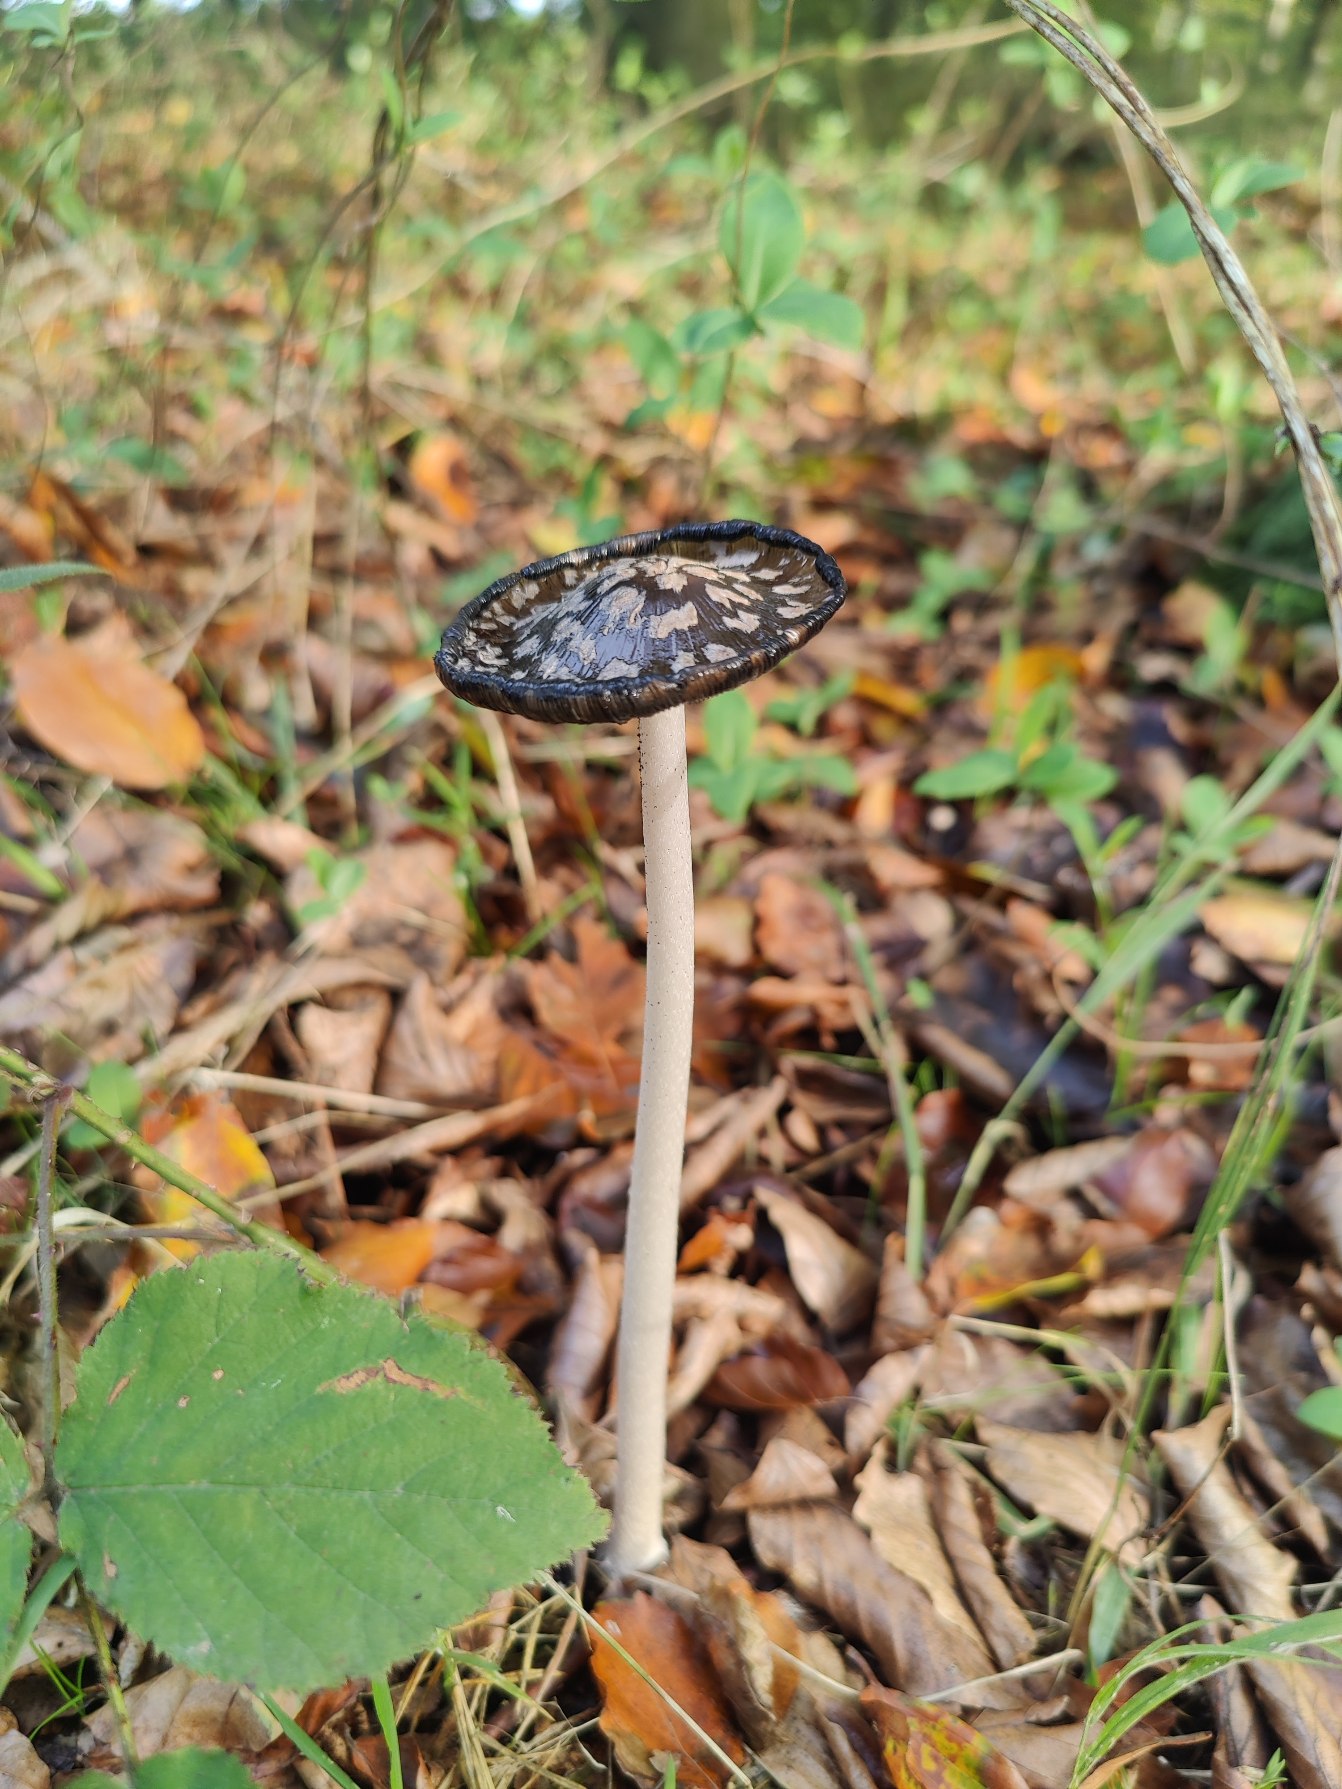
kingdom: Fungi
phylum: Basidiomycota
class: Agaricomycetes
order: Agaricales
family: Psathyrellaceae
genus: Coprinopsis
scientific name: Coprinopsis picacea
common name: Skade-blækhat
